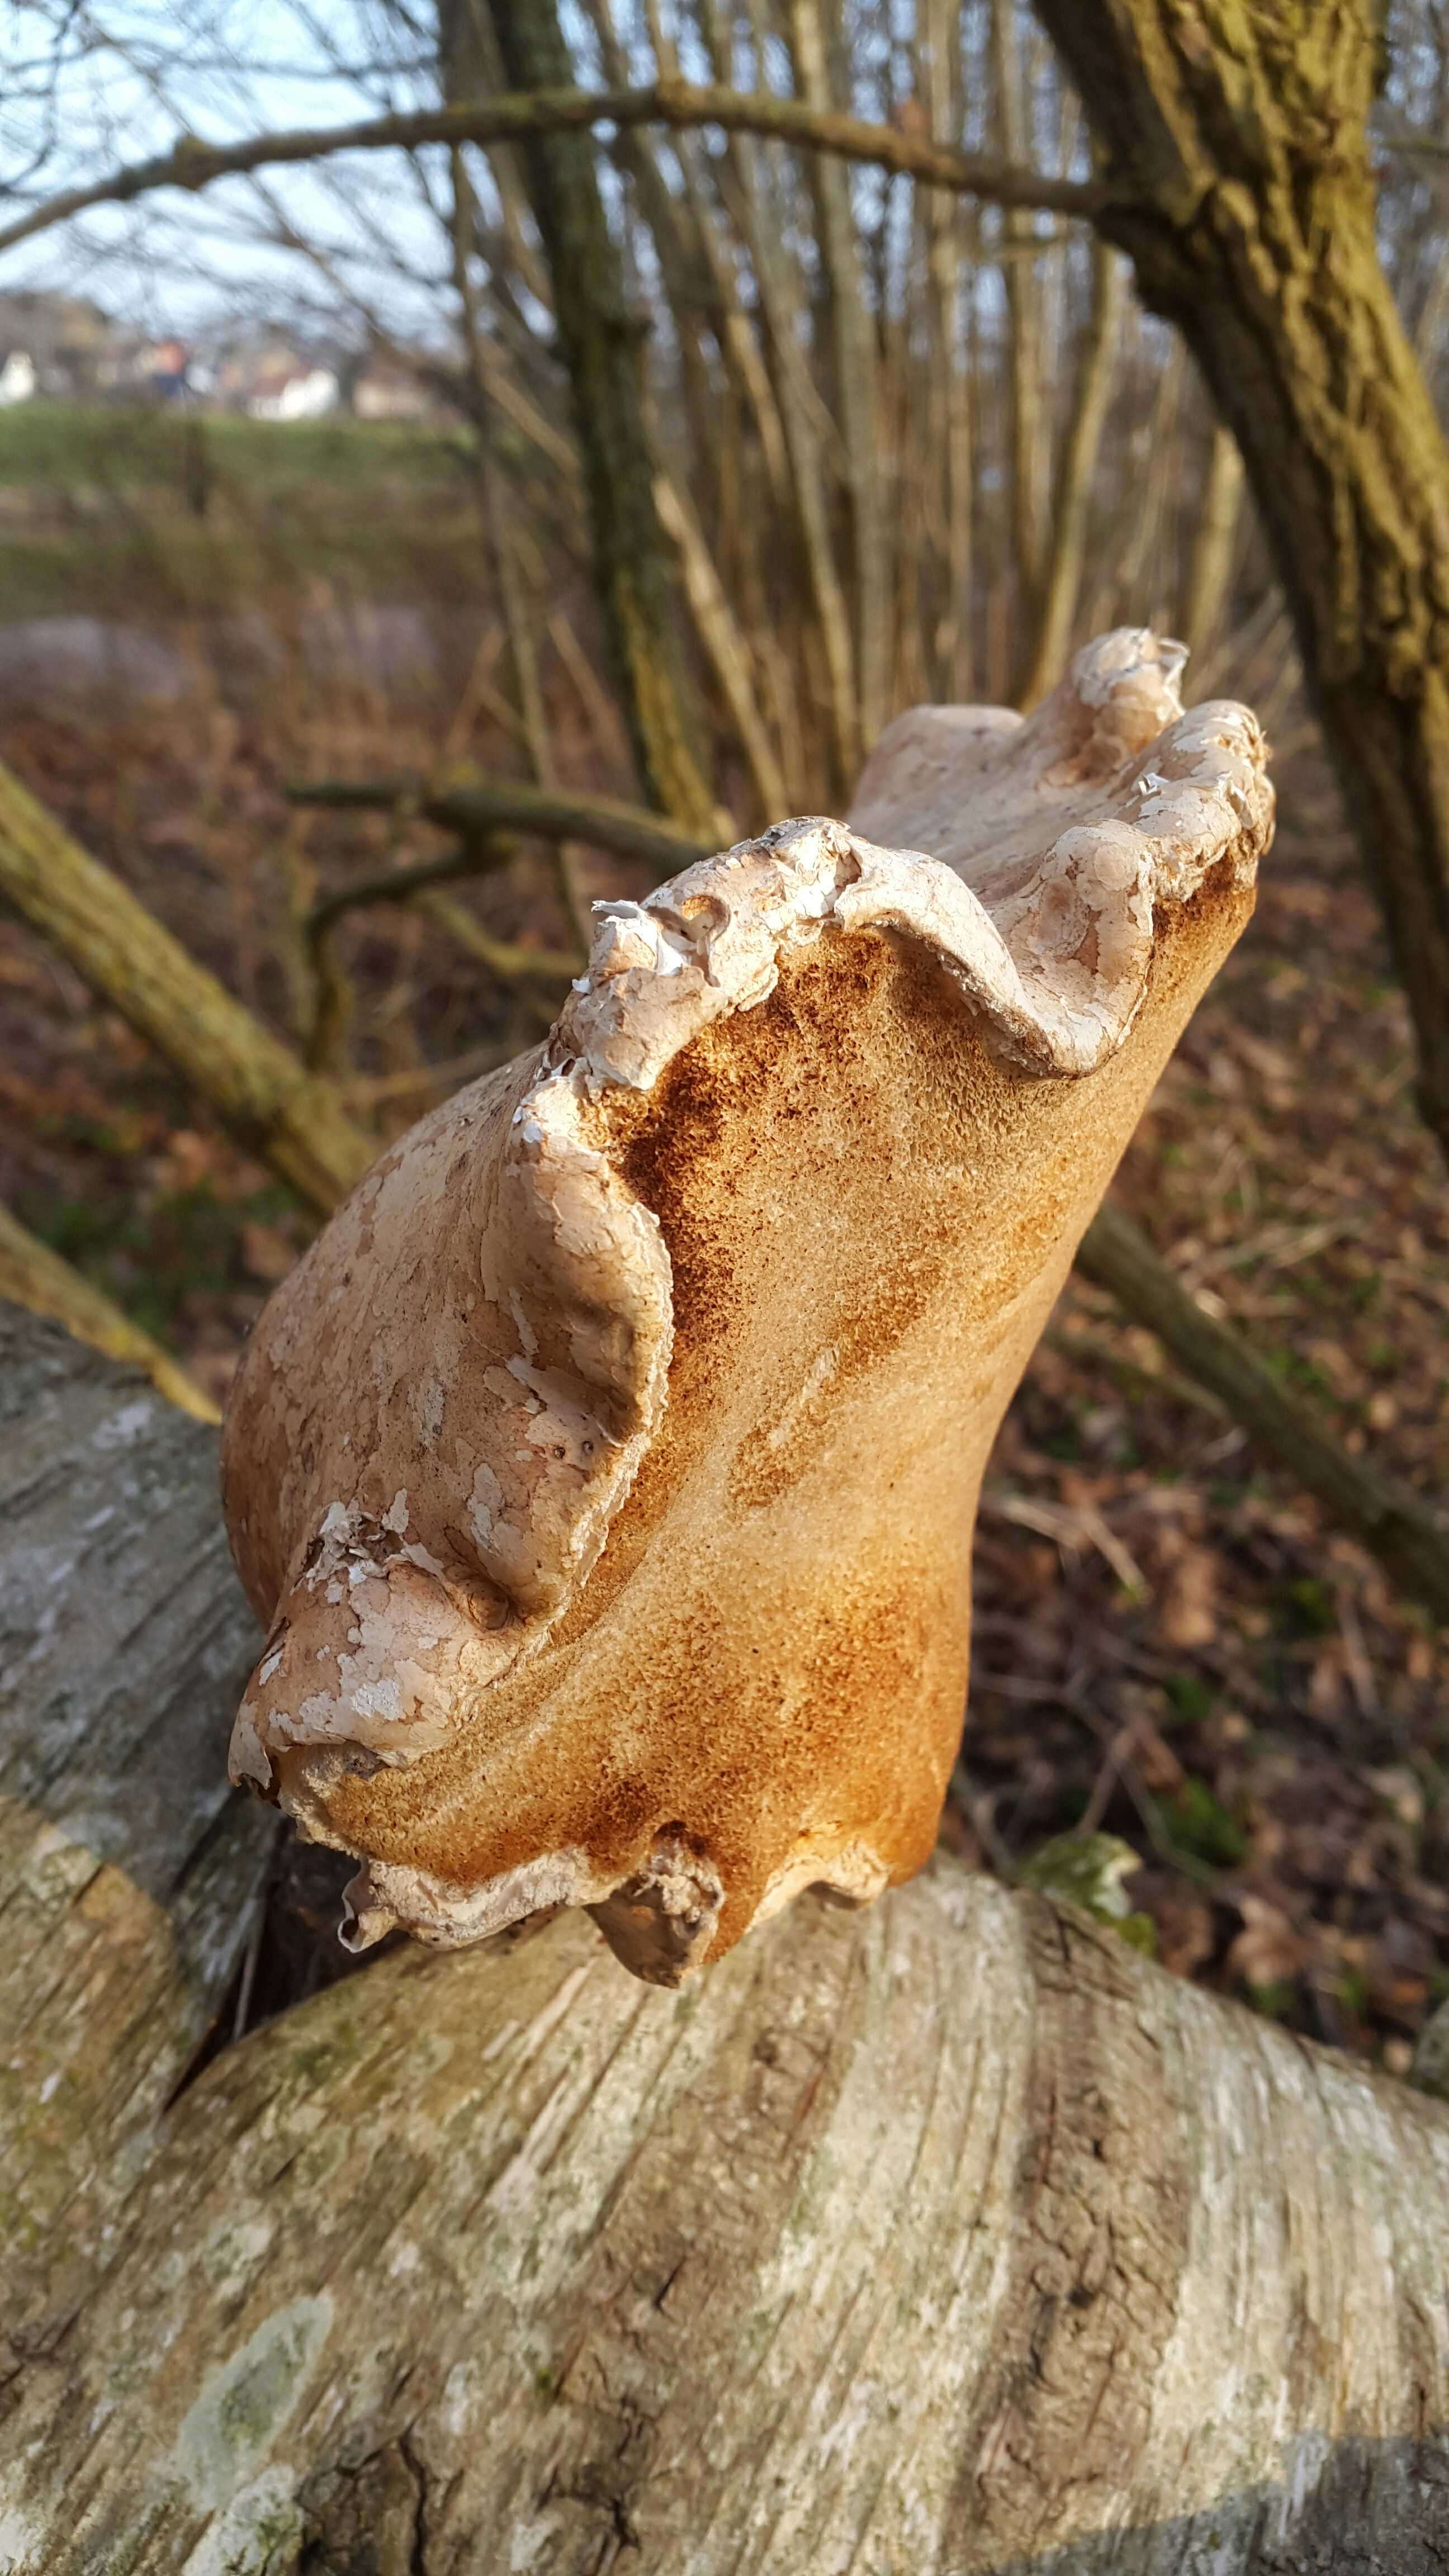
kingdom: Fungi
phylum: Basidiomycota
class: Agaricomycetes
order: Polyporales
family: Fomitopsidaceae
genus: Fomitopsis
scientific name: Fomitopsis betulina
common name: birkeporesvamp
